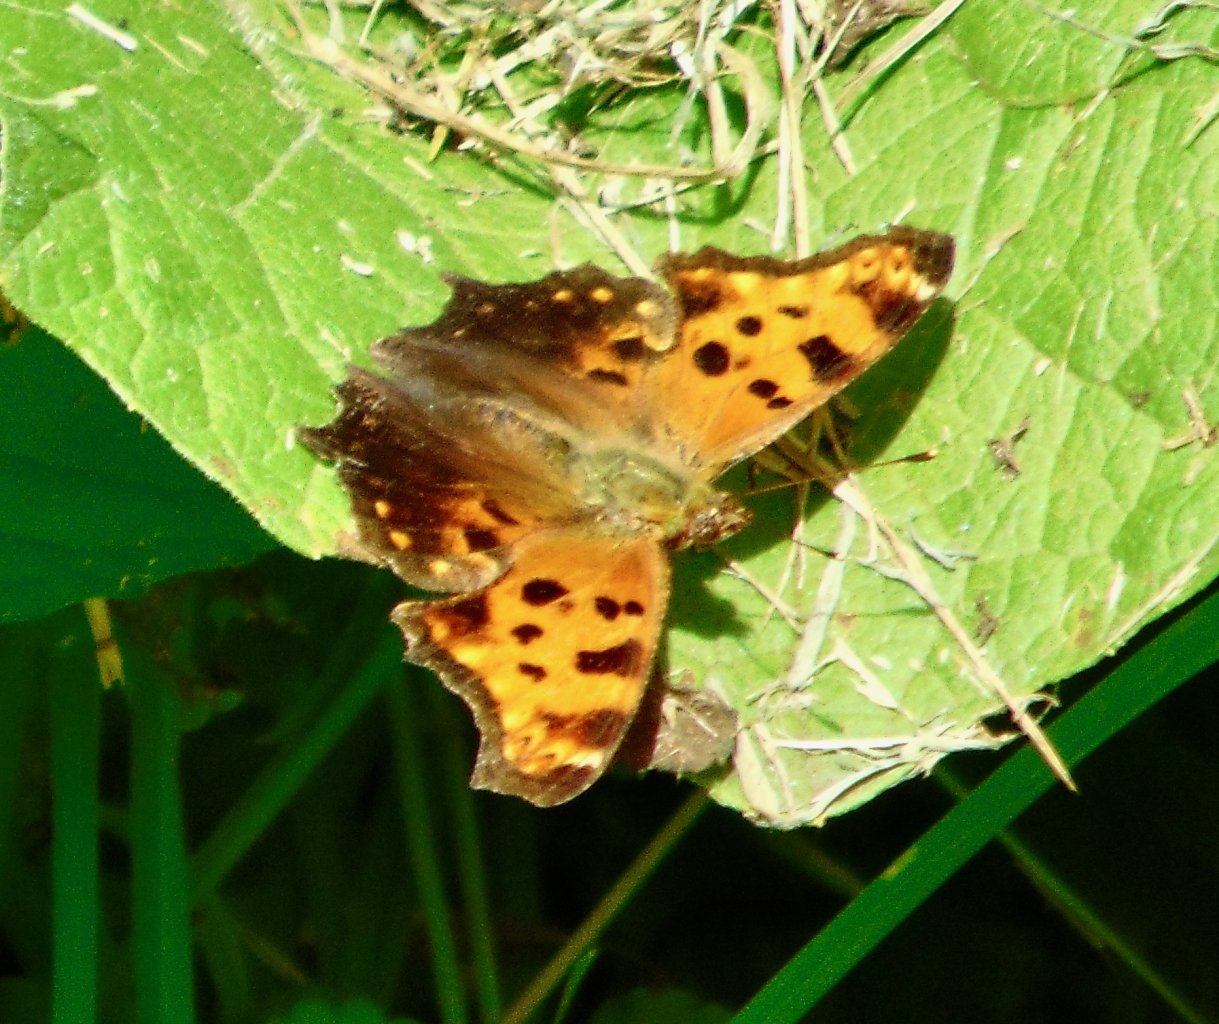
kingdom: Animalia
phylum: Arthropoda
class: Insecta
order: Lepidoptera
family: Nymphalidae
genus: Polygonia
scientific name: Polygonia comma
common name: Eastern Comma
